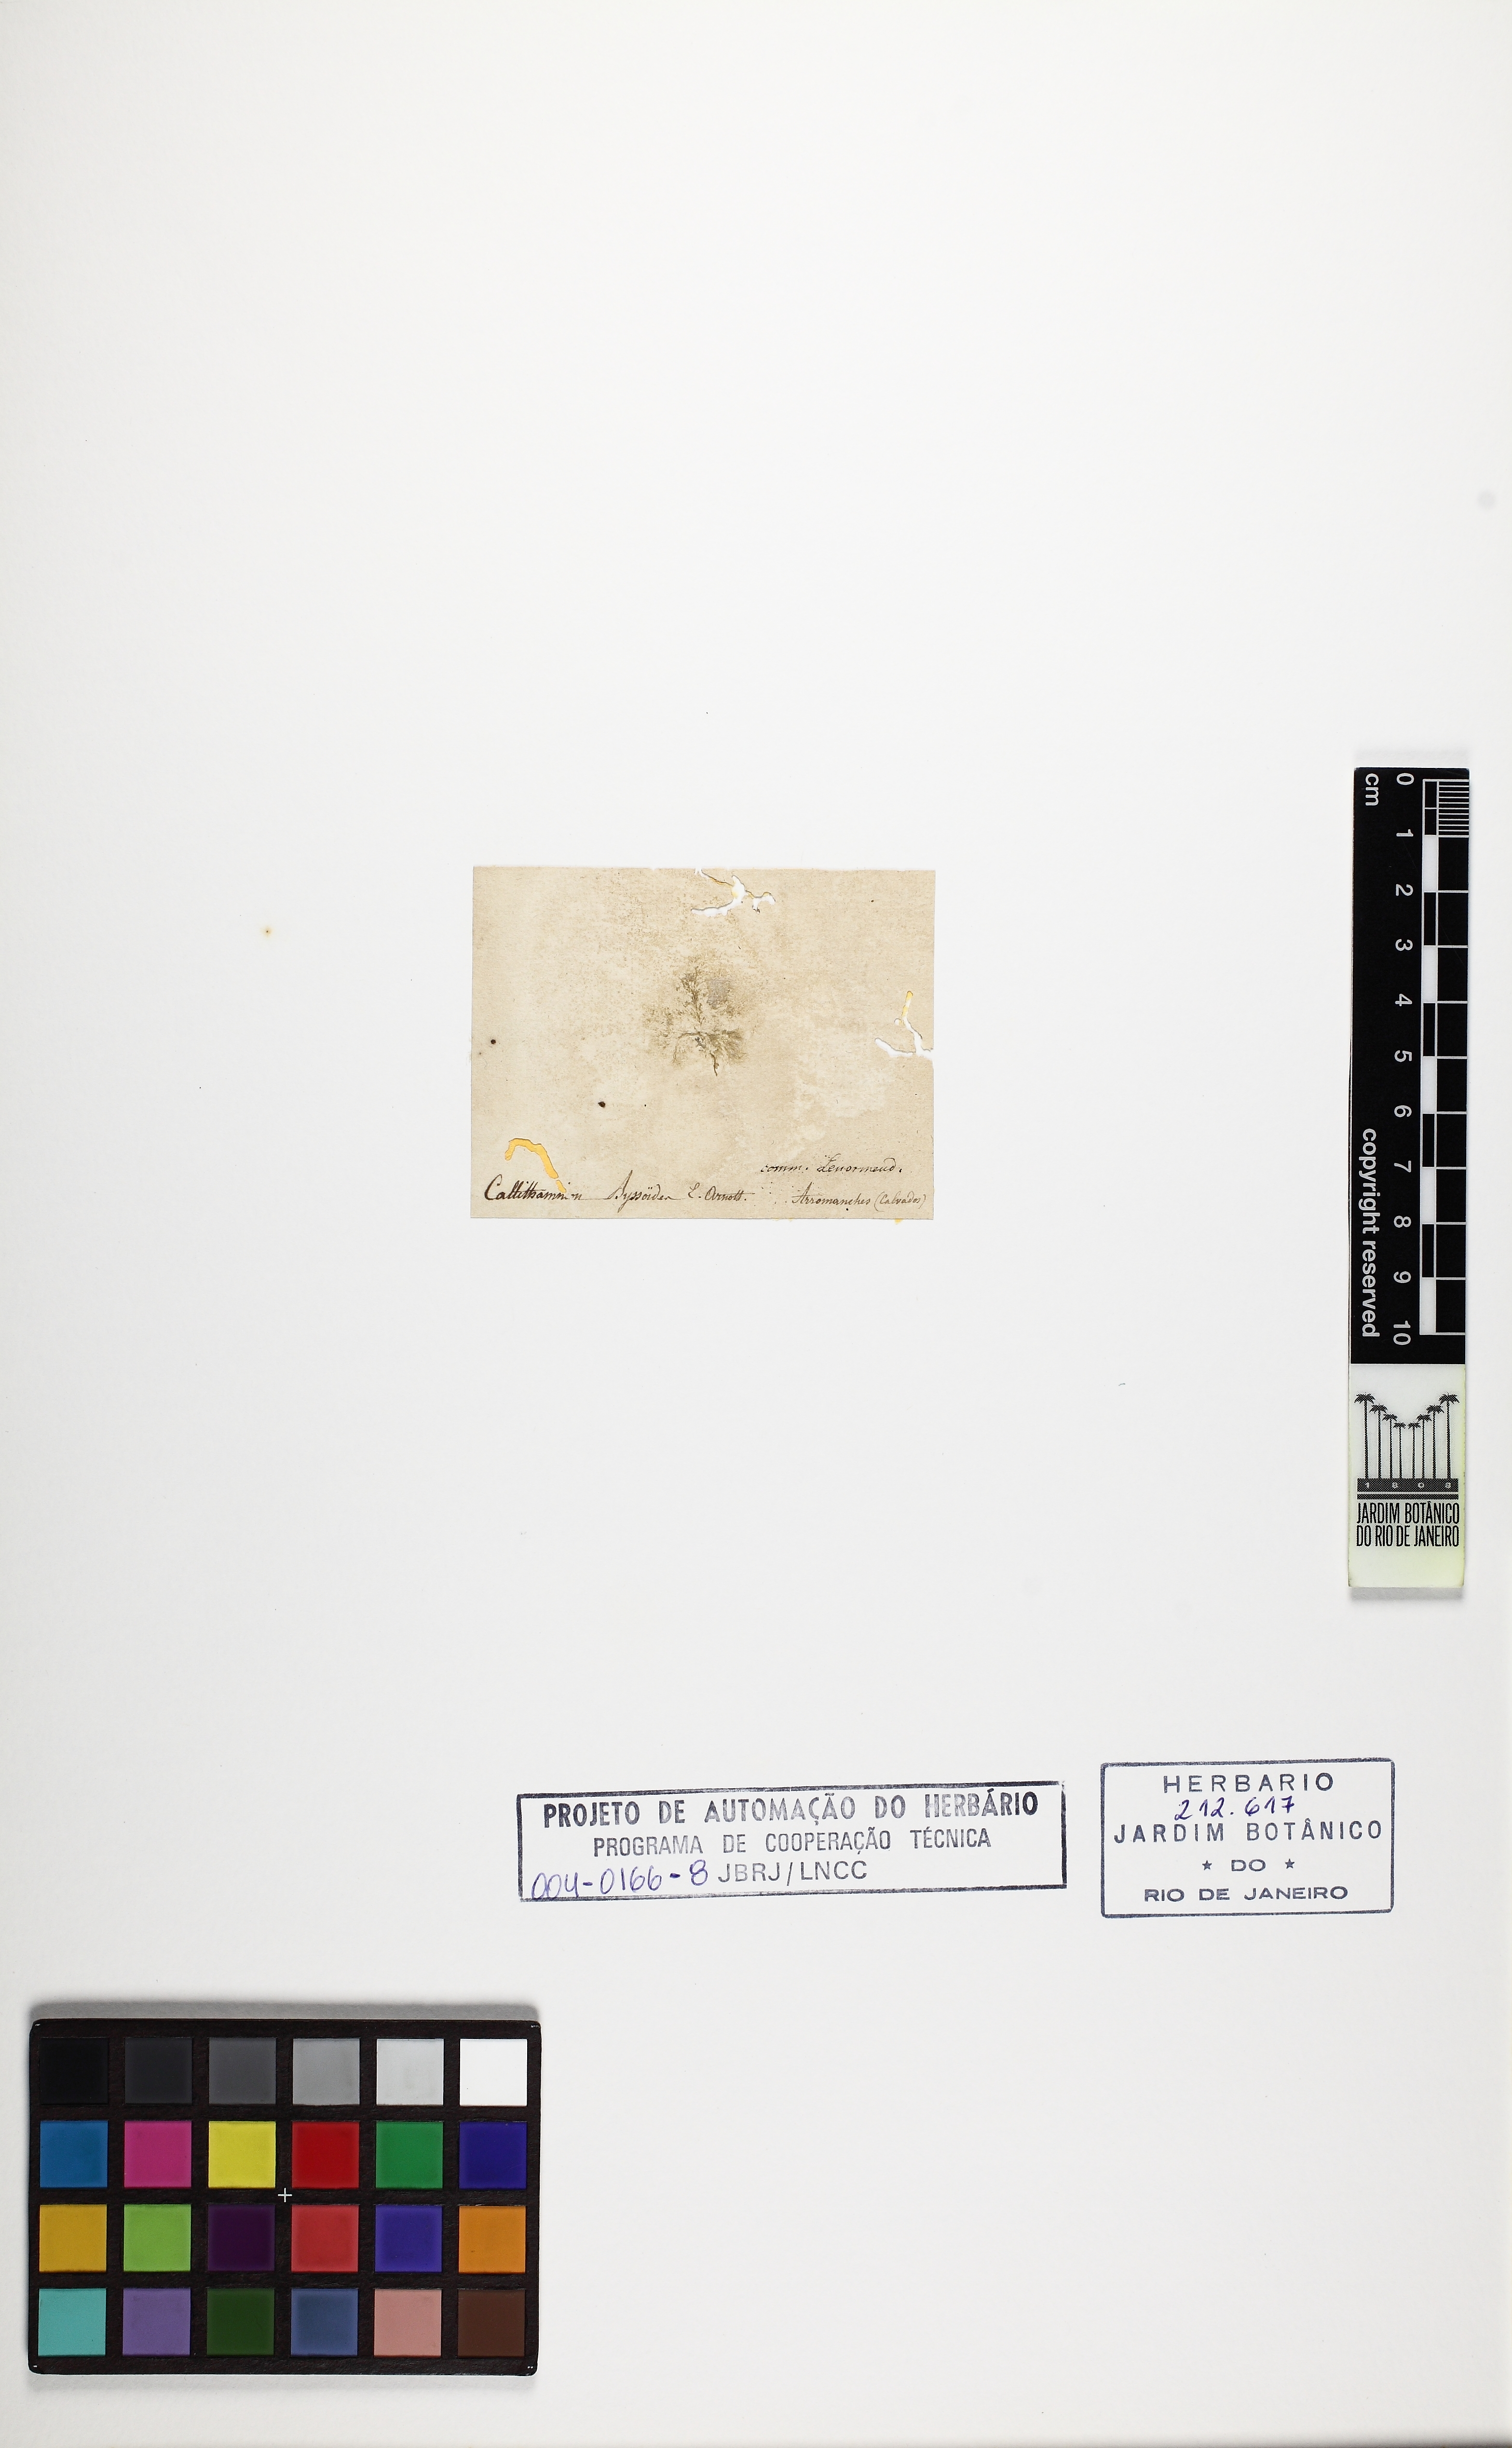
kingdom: Plantae
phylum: Rhodophyta
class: Florideophyceae
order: Ceramiales
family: Callithamniaceae
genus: Aglaothamnion
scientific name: Aglaothamnion tenuissimum
